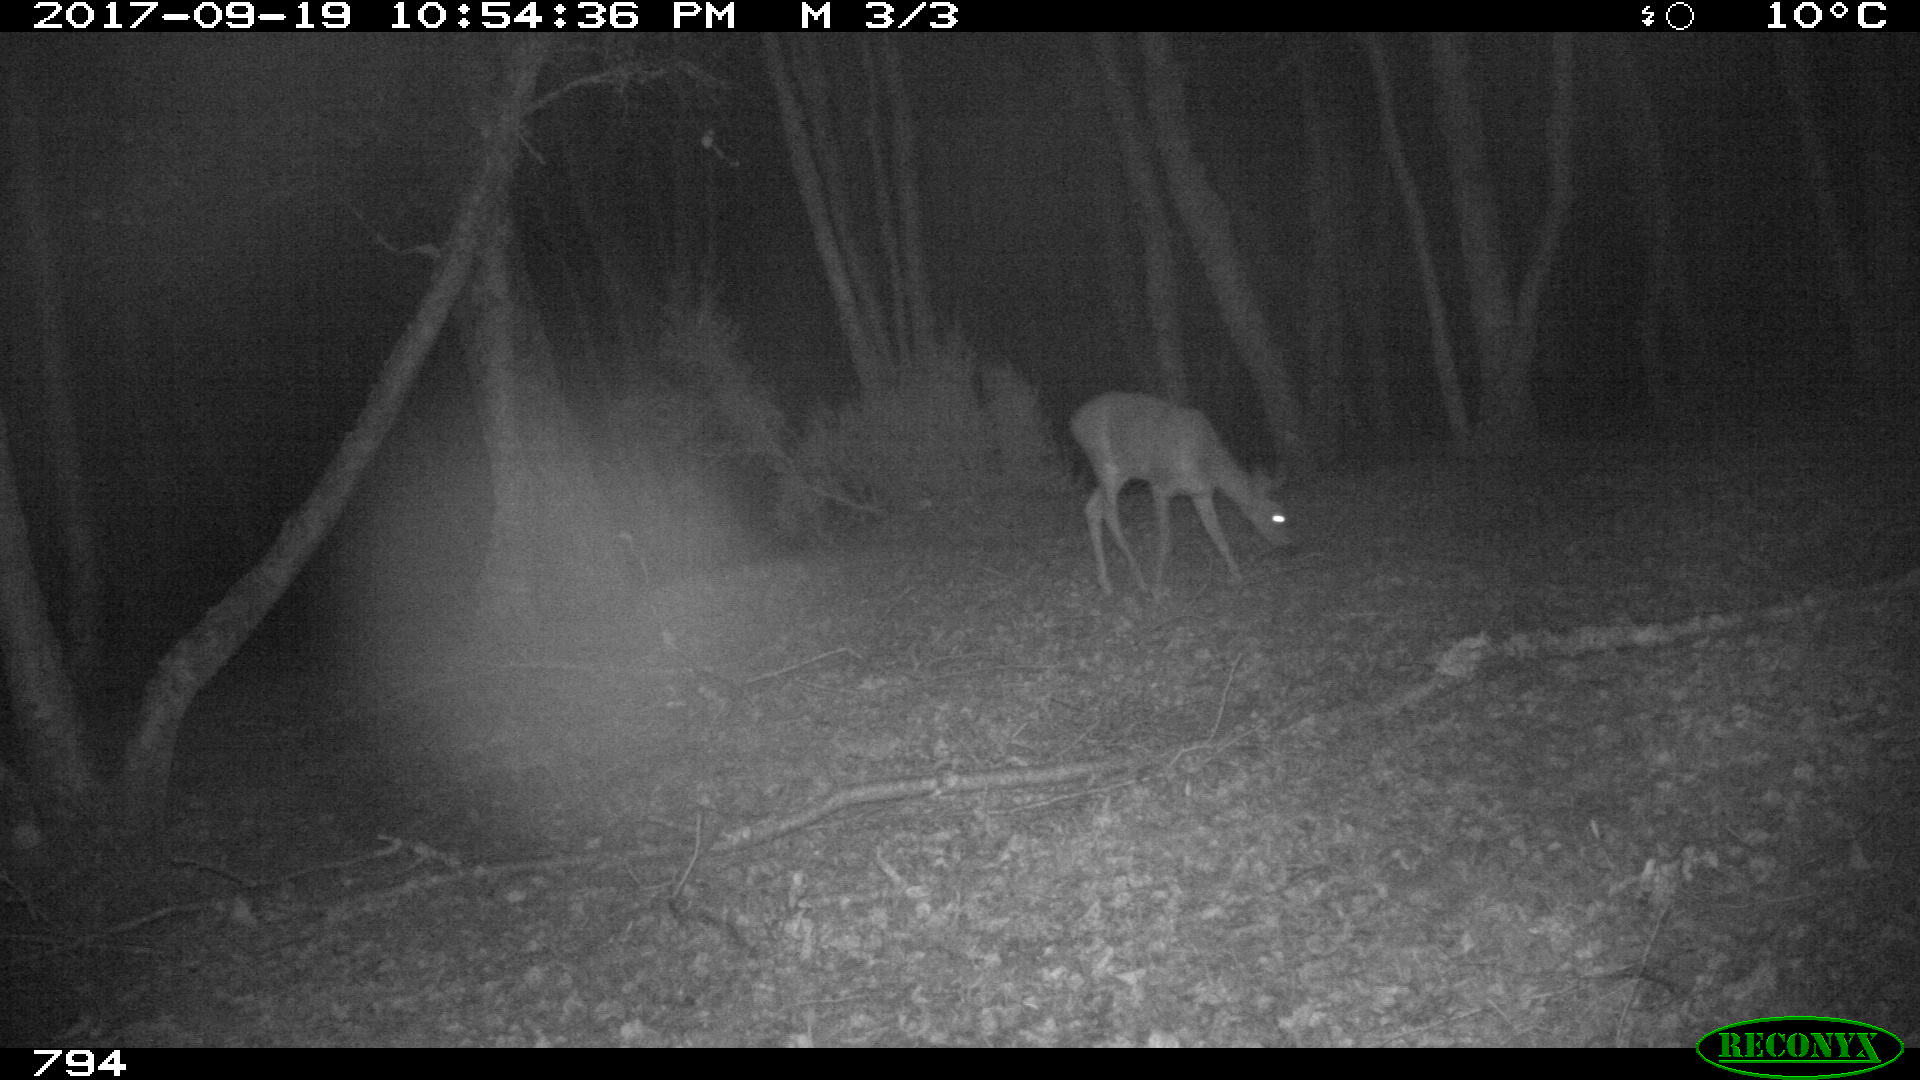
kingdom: Animalia
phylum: Chordata
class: Mammalia
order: Artiodactyla
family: Cervidae
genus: Capreolus
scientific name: Capreolus capreolus
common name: Western roe deer
